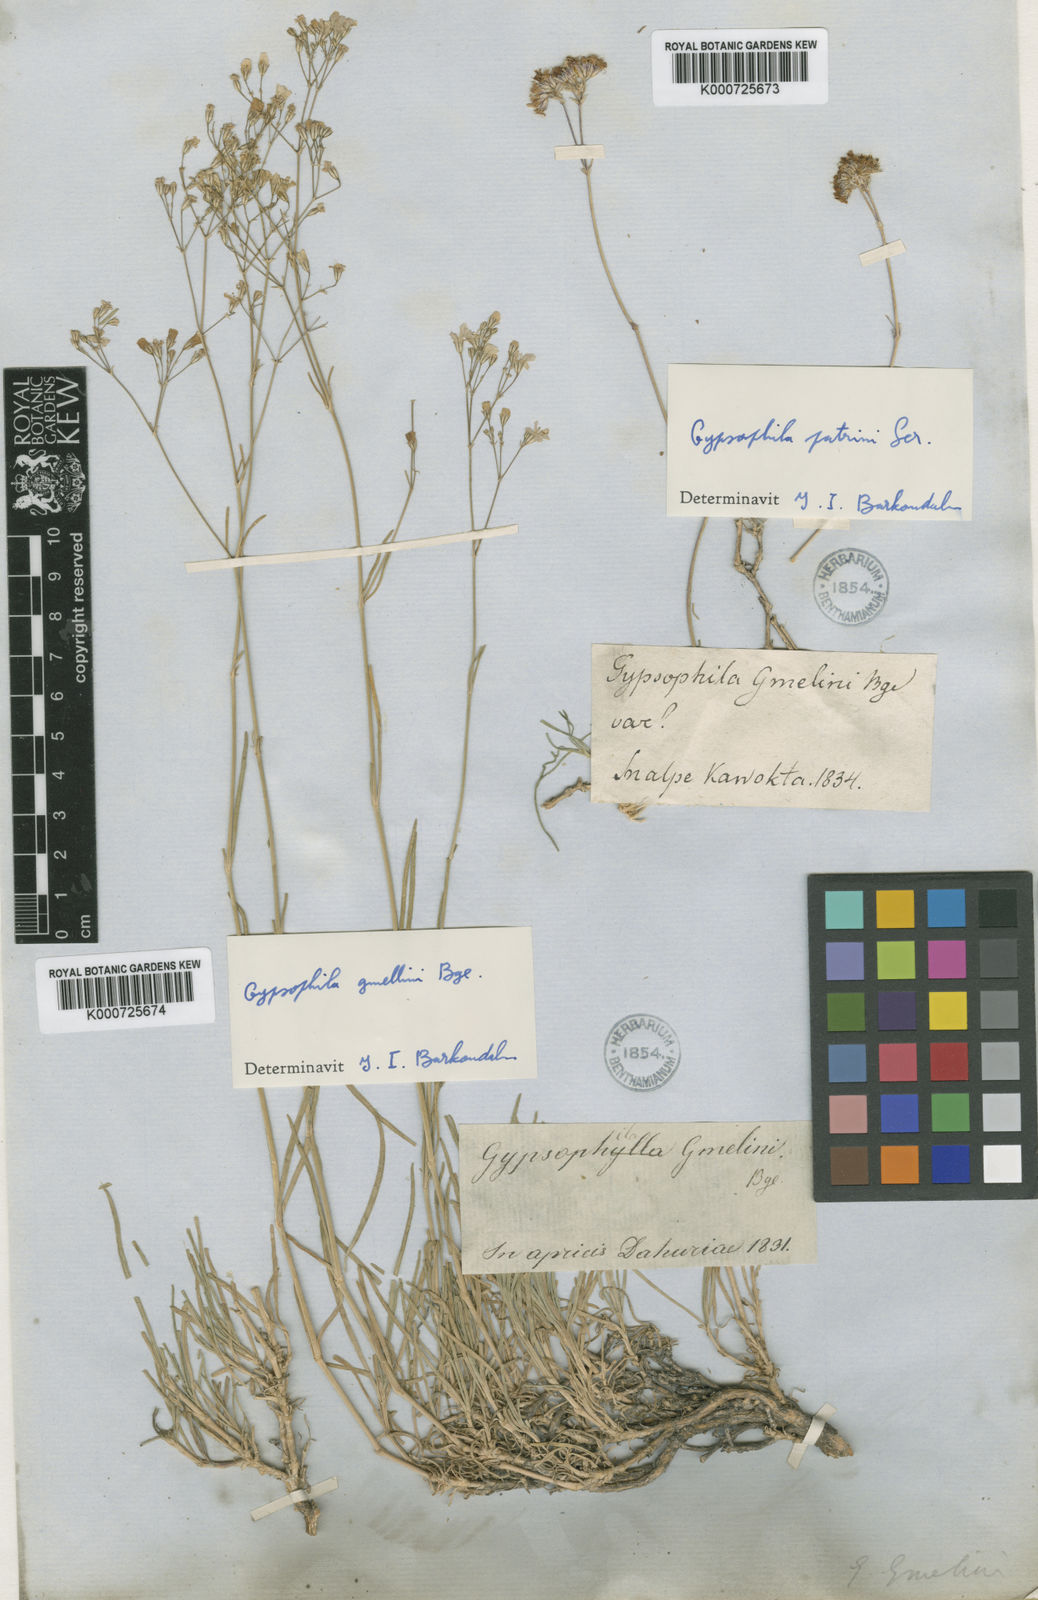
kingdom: Plantae
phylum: Tracheophyta
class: Magnoliopsida
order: Caryophyllales
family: Caryophyllaceae
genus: Gypsophila
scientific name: Gypsophila stevenii
